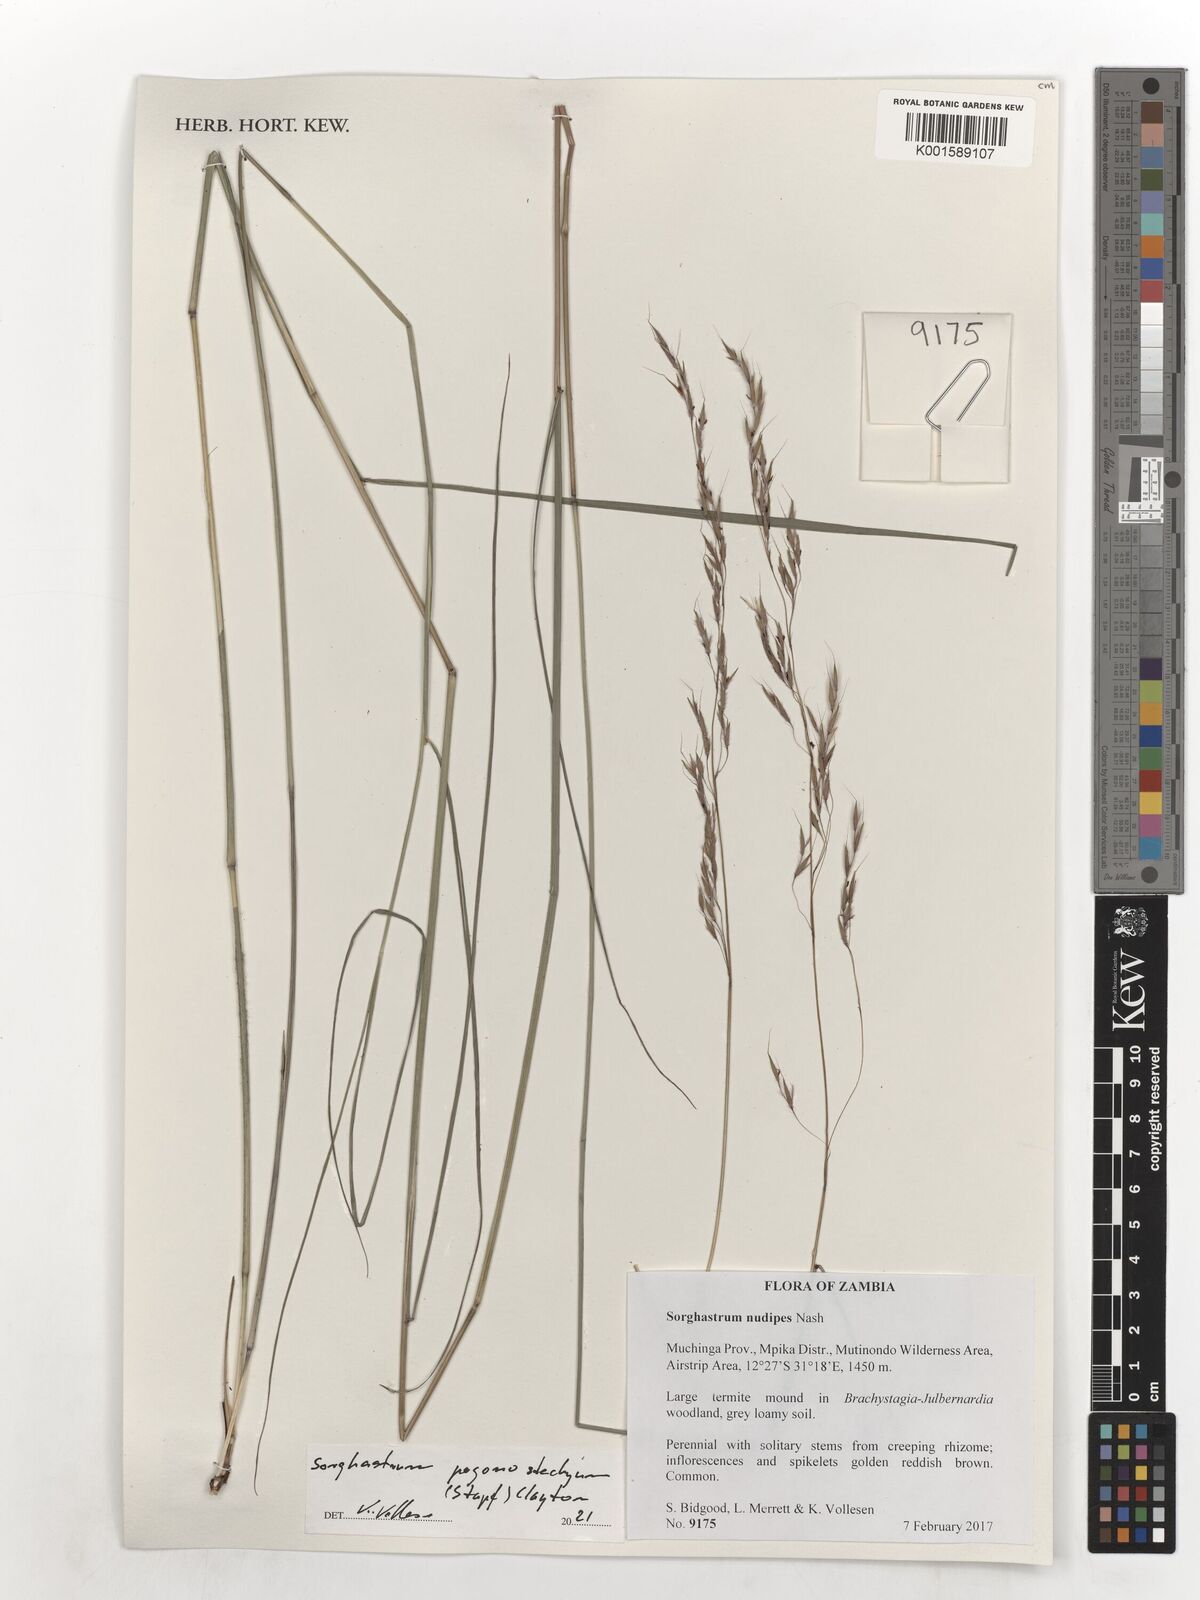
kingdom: Plantae
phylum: Tracheophyta
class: Liliopsida
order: Poales
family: Poaceae
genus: Sorghastrum
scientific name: Sorghastrum pogonostachyum
